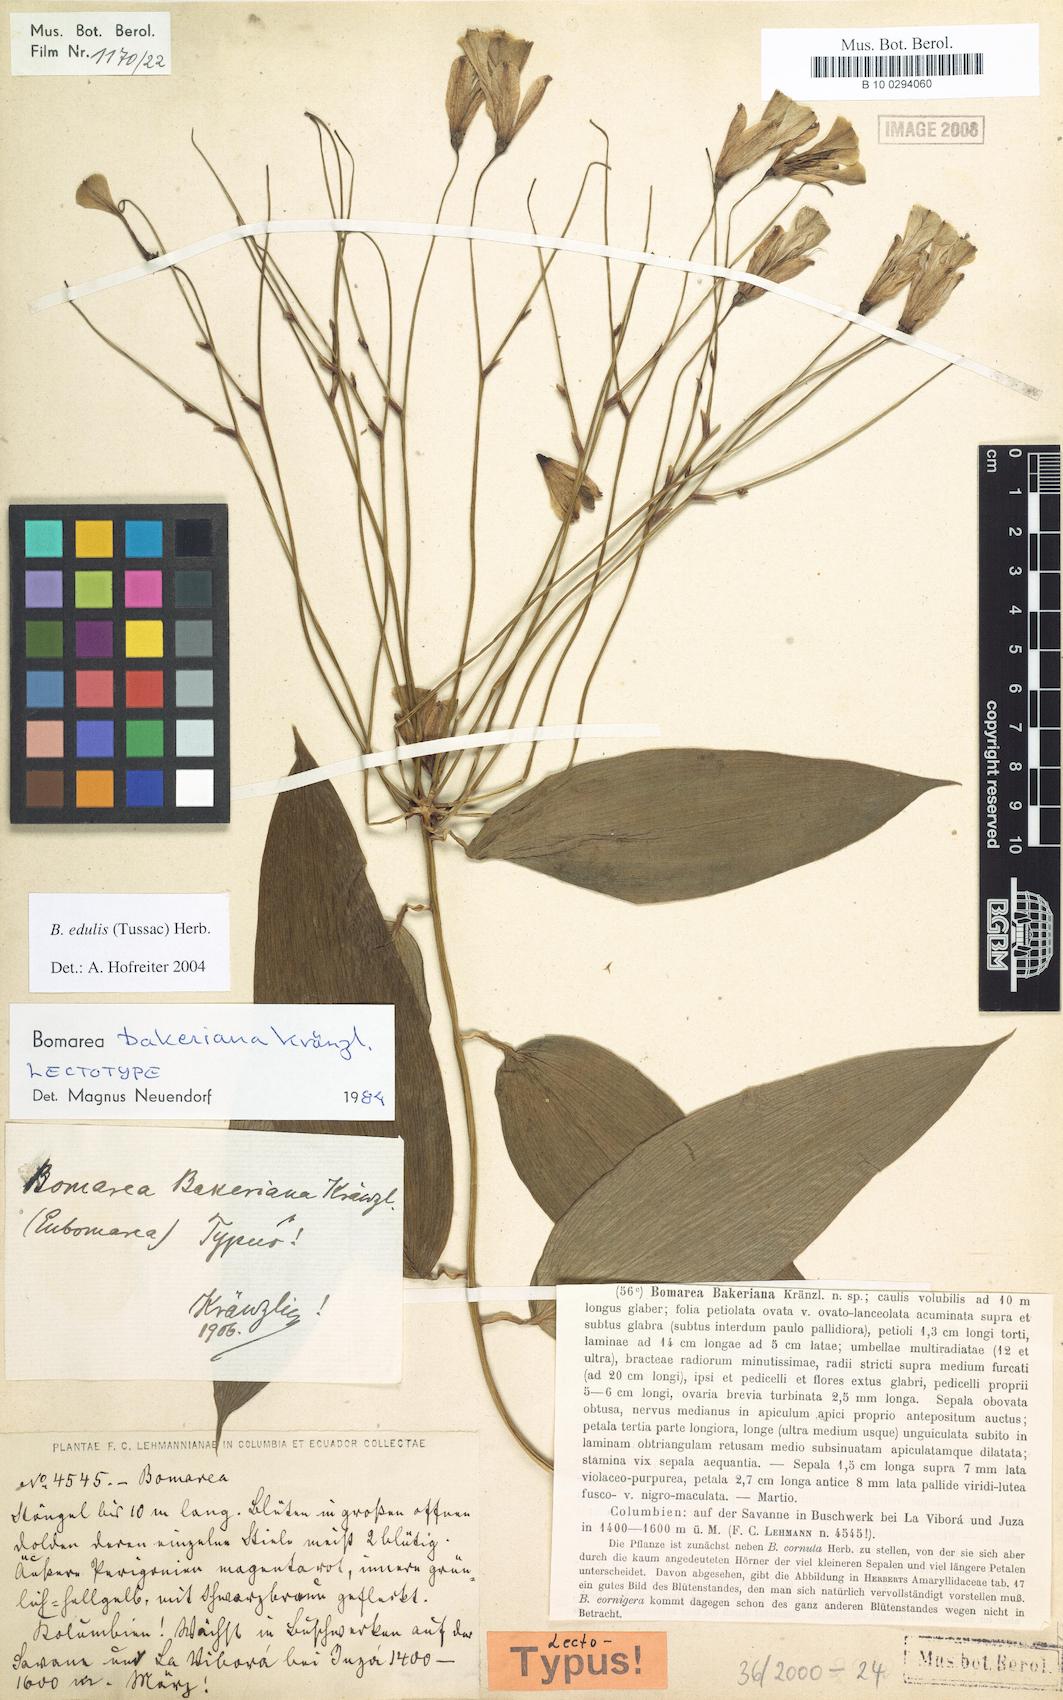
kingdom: Plantae
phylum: Tracheophyta
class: Liliopsida
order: Liliales
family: Alstroemeriaceae
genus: Bomarea
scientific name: Bomarea edulis
